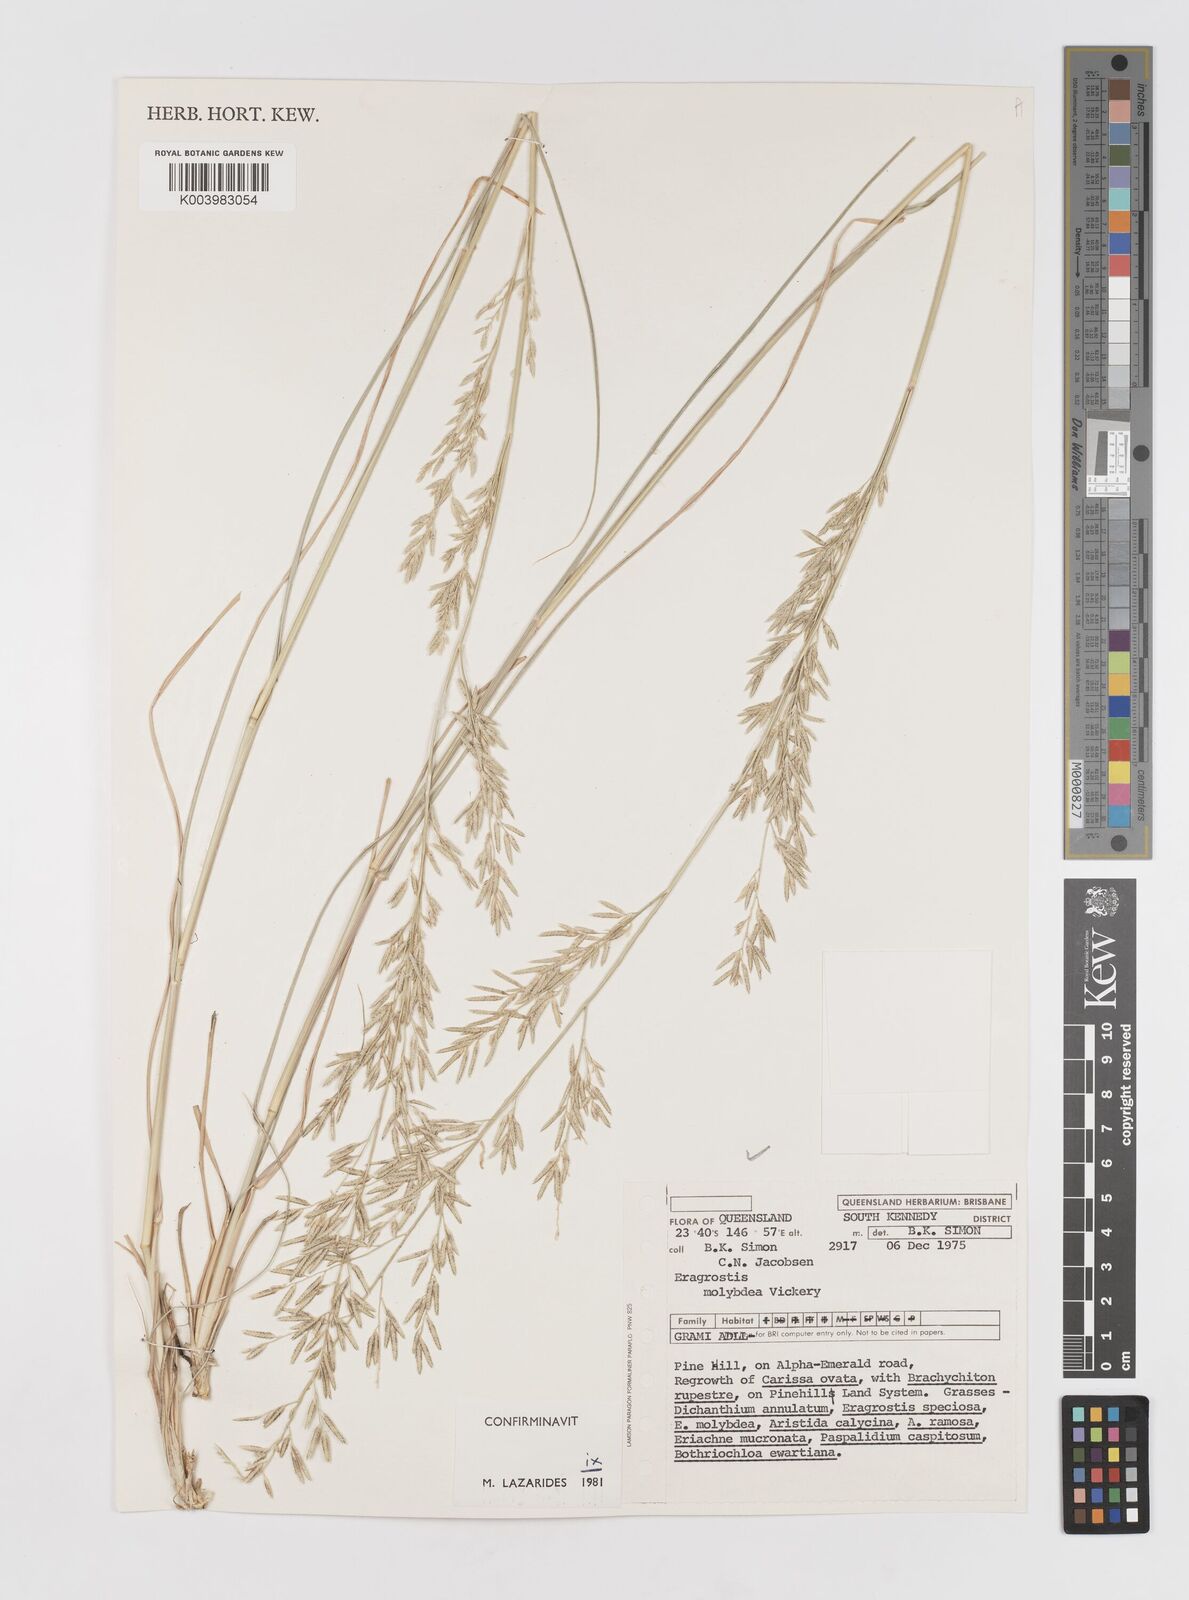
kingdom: Plantae
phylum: Tracheophyta
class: Liliopsida
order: Poales
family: Poaceae
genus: Eragrostis
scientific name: Eragrostis leptostachya
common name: Australian lovegrass
